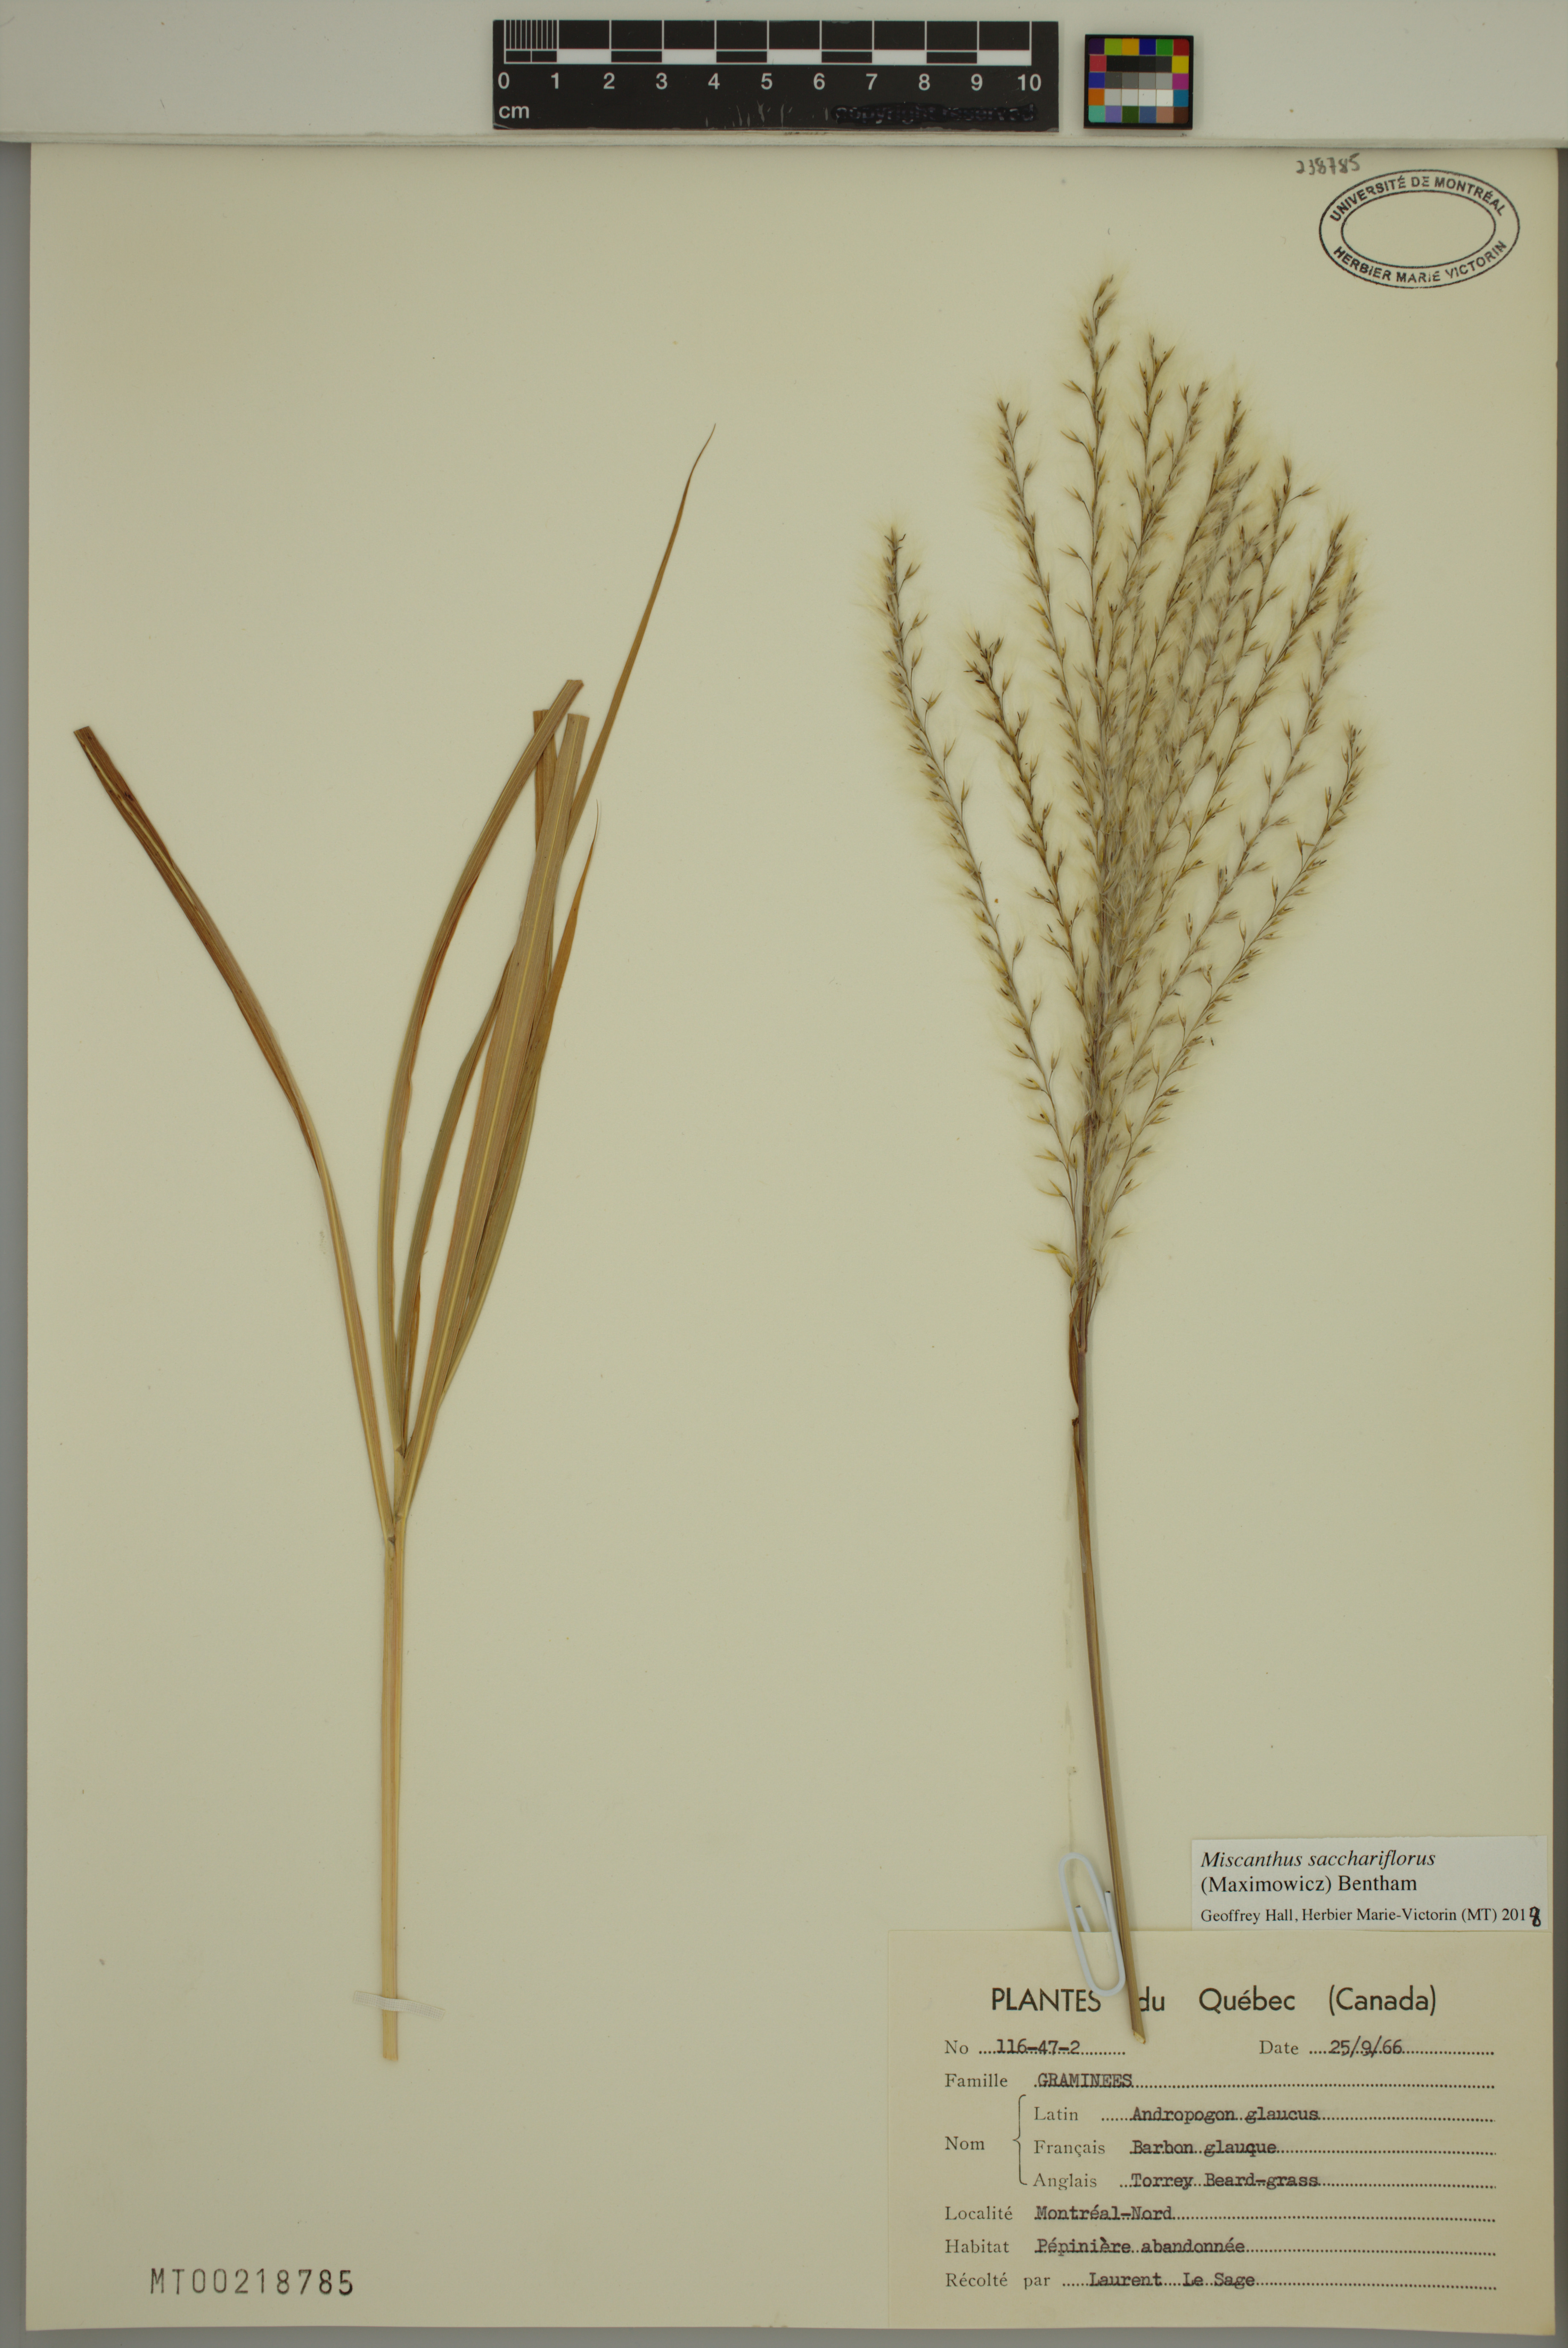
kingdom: Plantae
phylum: Tracheophyta
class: Magnoliopsida
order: Myrtales
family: Onagraceae
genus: Ludwigia
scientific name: Ludwigia palustris
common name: Hampshire-purslane
